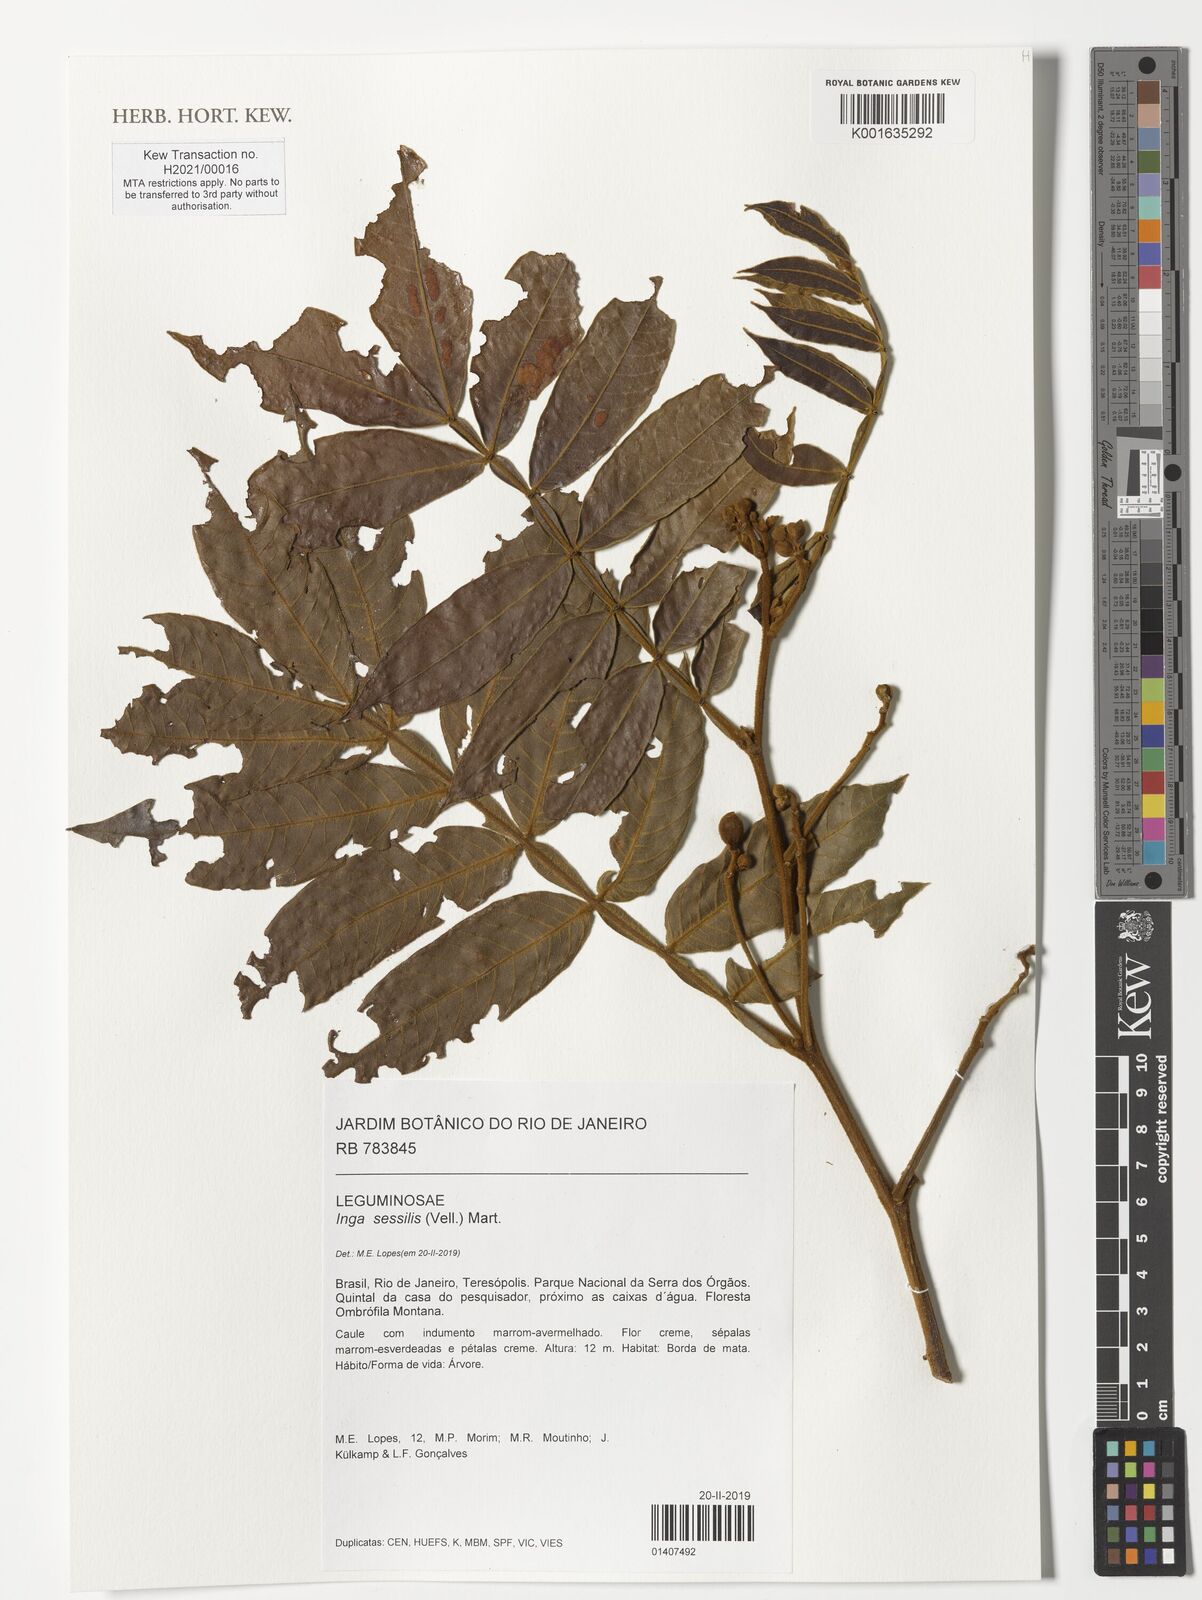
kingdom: Plantae
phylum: Tracheophyta
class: Magnoliopsida
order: Fabales
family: Fabaceae
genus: Inga
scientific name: Inga sessilis
